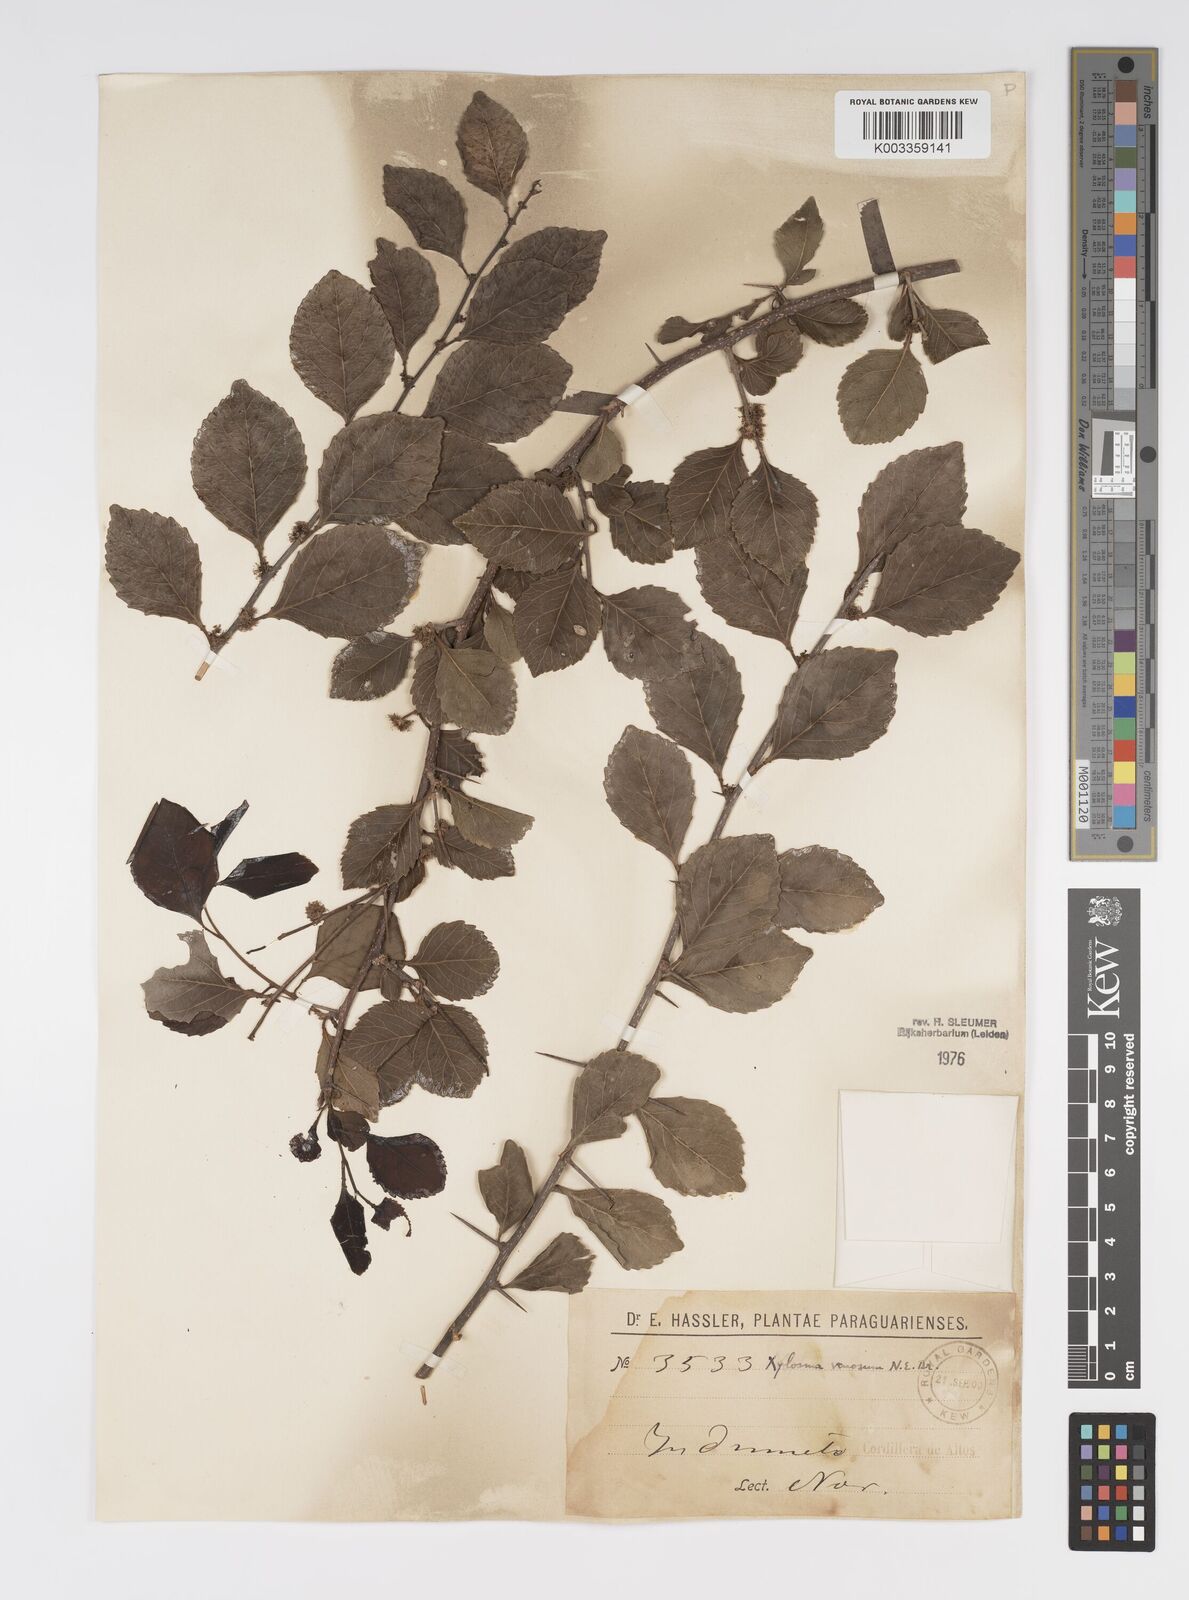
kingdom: Plantae
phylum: Tracheophyta
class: Magnoliopsida
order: Malpighiales
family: Salicaceae
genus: Xylosma
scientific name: Xylosma venosa
